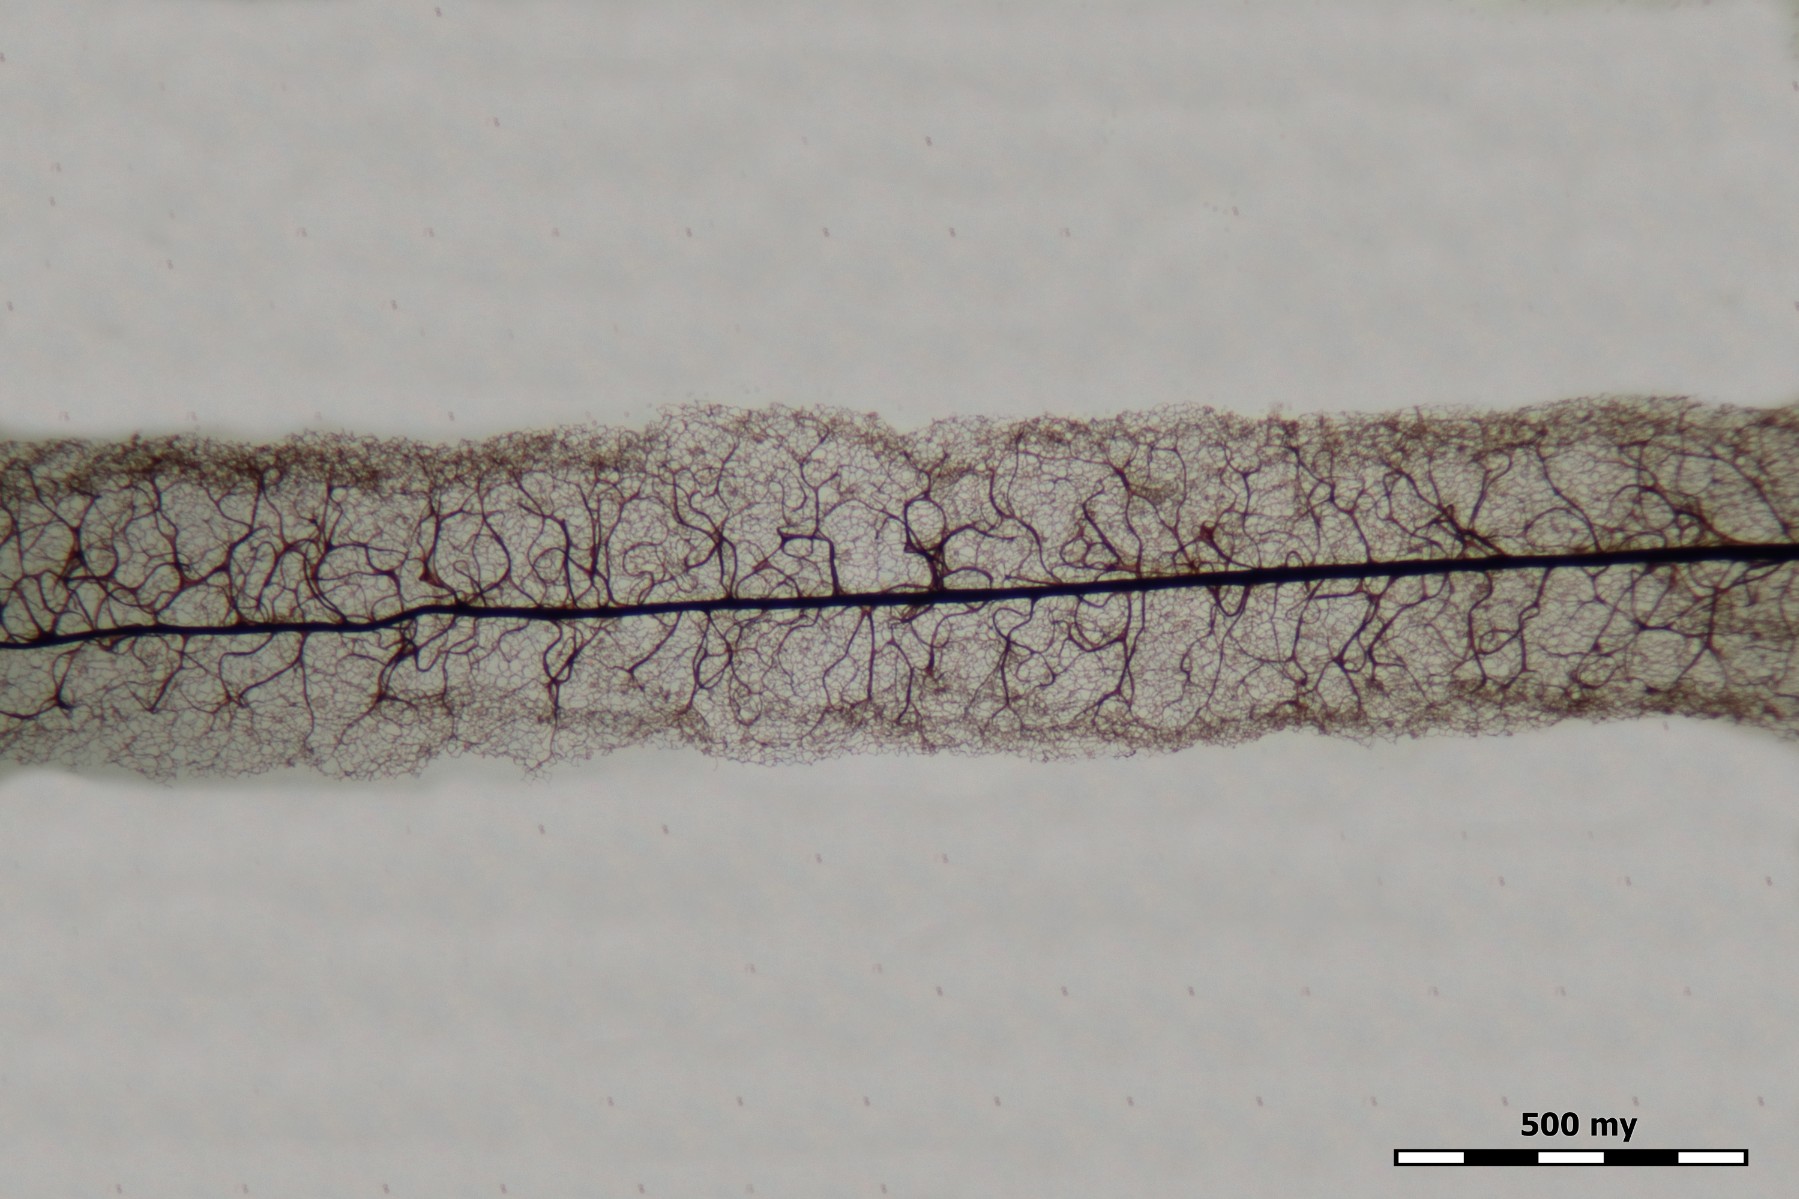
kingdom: Protozoa
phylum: Mycetozoa
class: Myxomycetes
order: Stemonitidales
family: Stemonitidaceae
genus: Stemonitis
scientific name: Stemonitis axifera
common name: rødbrun støvkølle
